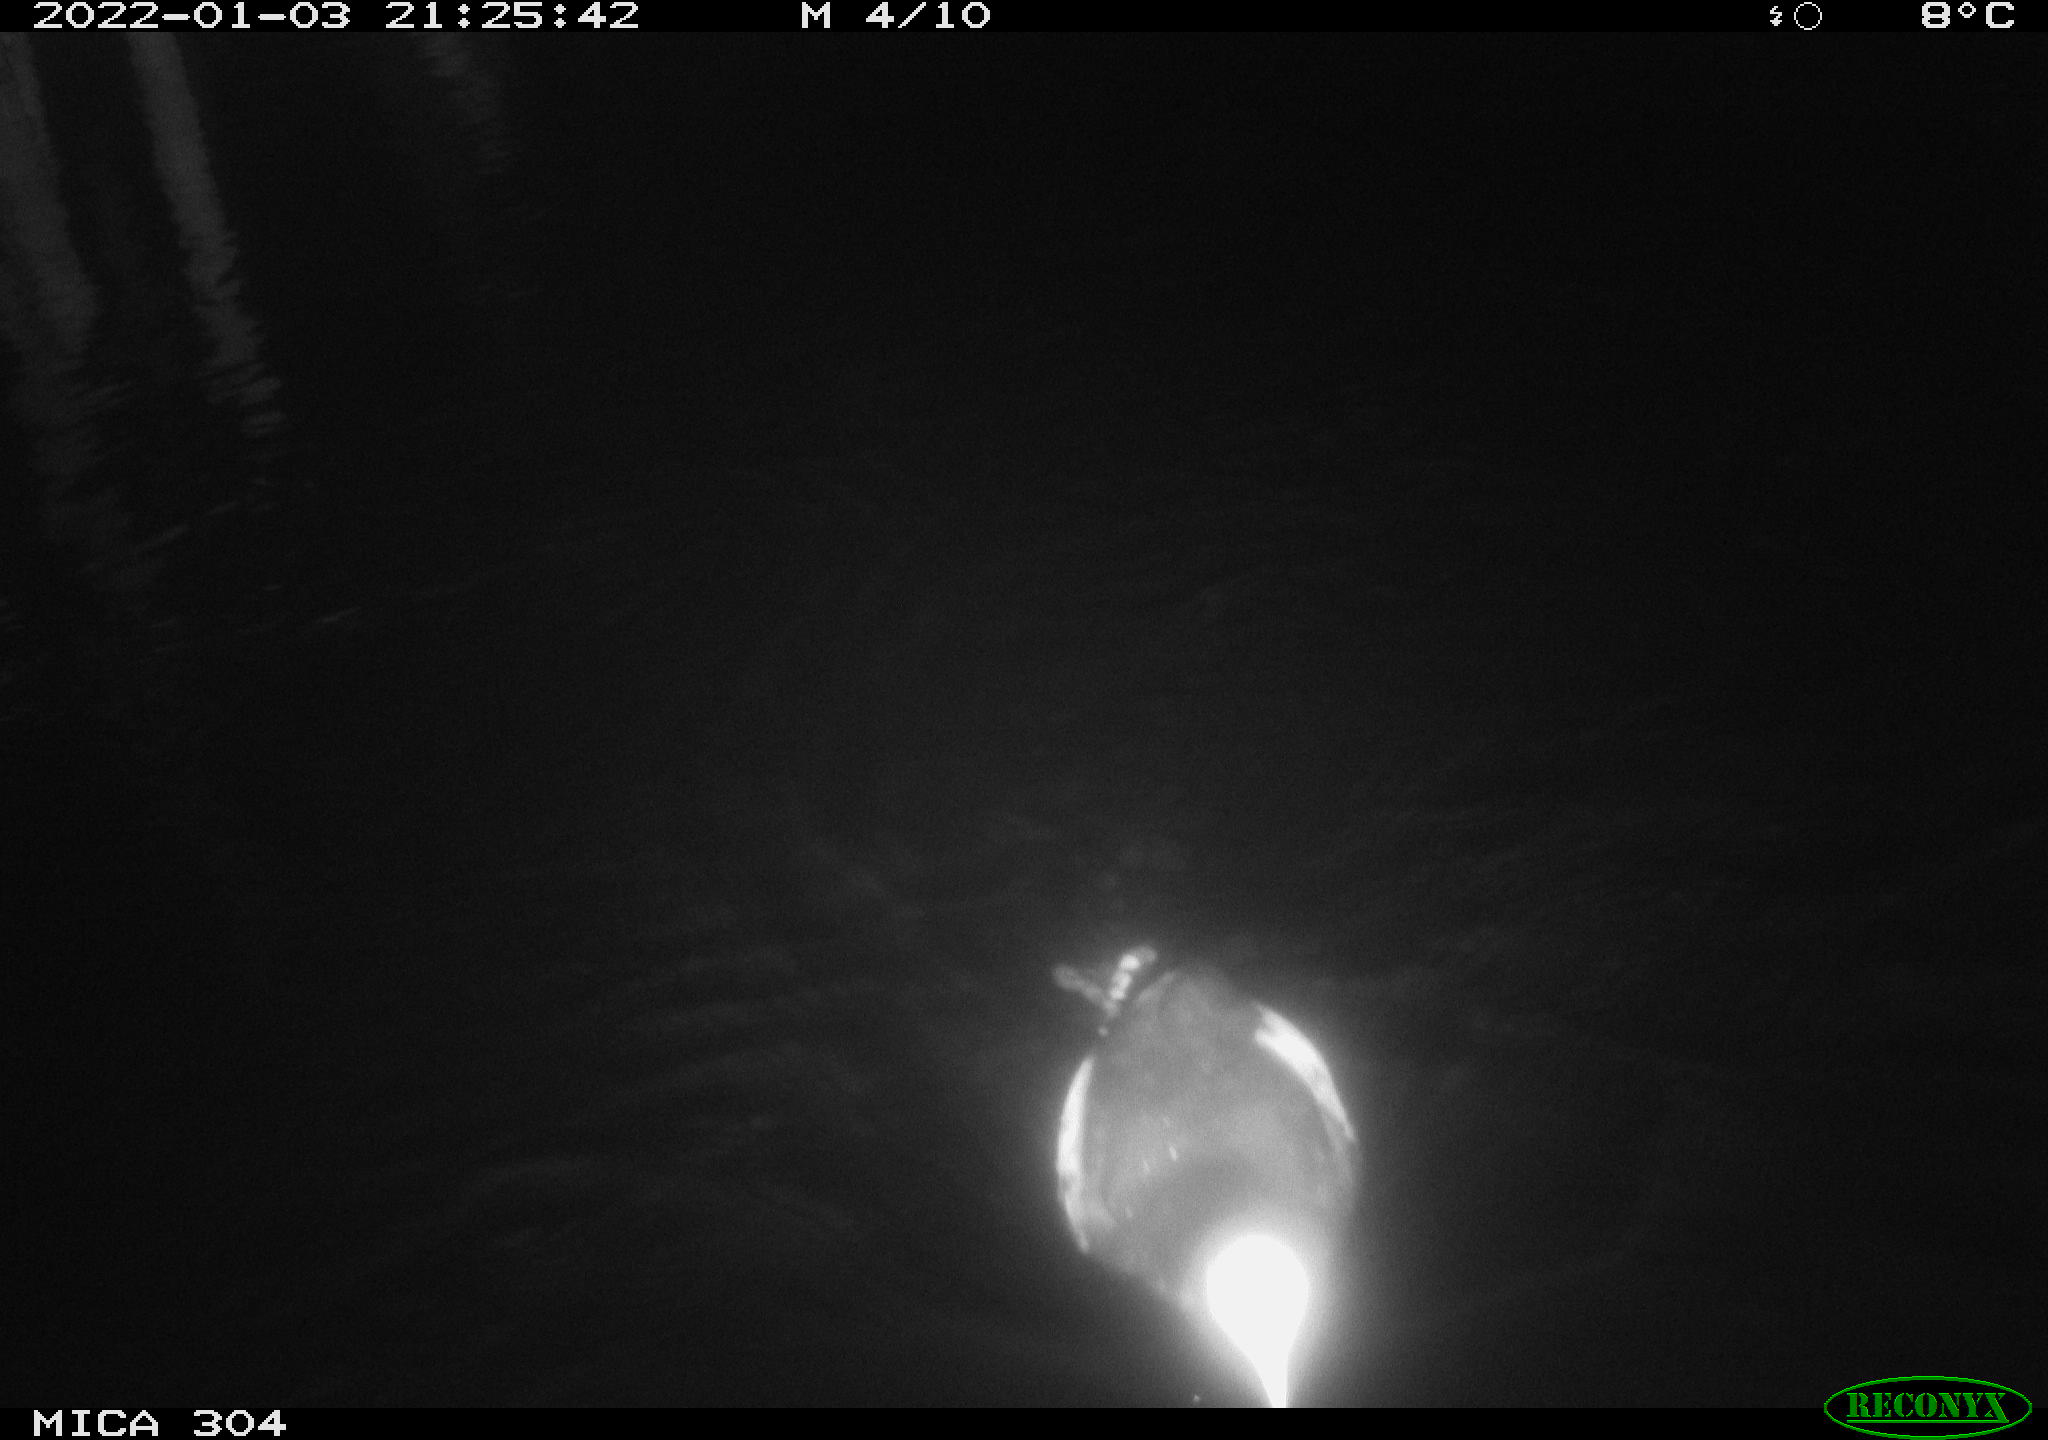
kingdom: Animalia
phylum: Chordata
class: Aves
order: Anseriformes
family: Anatidae
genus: Anas
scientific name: Anas
